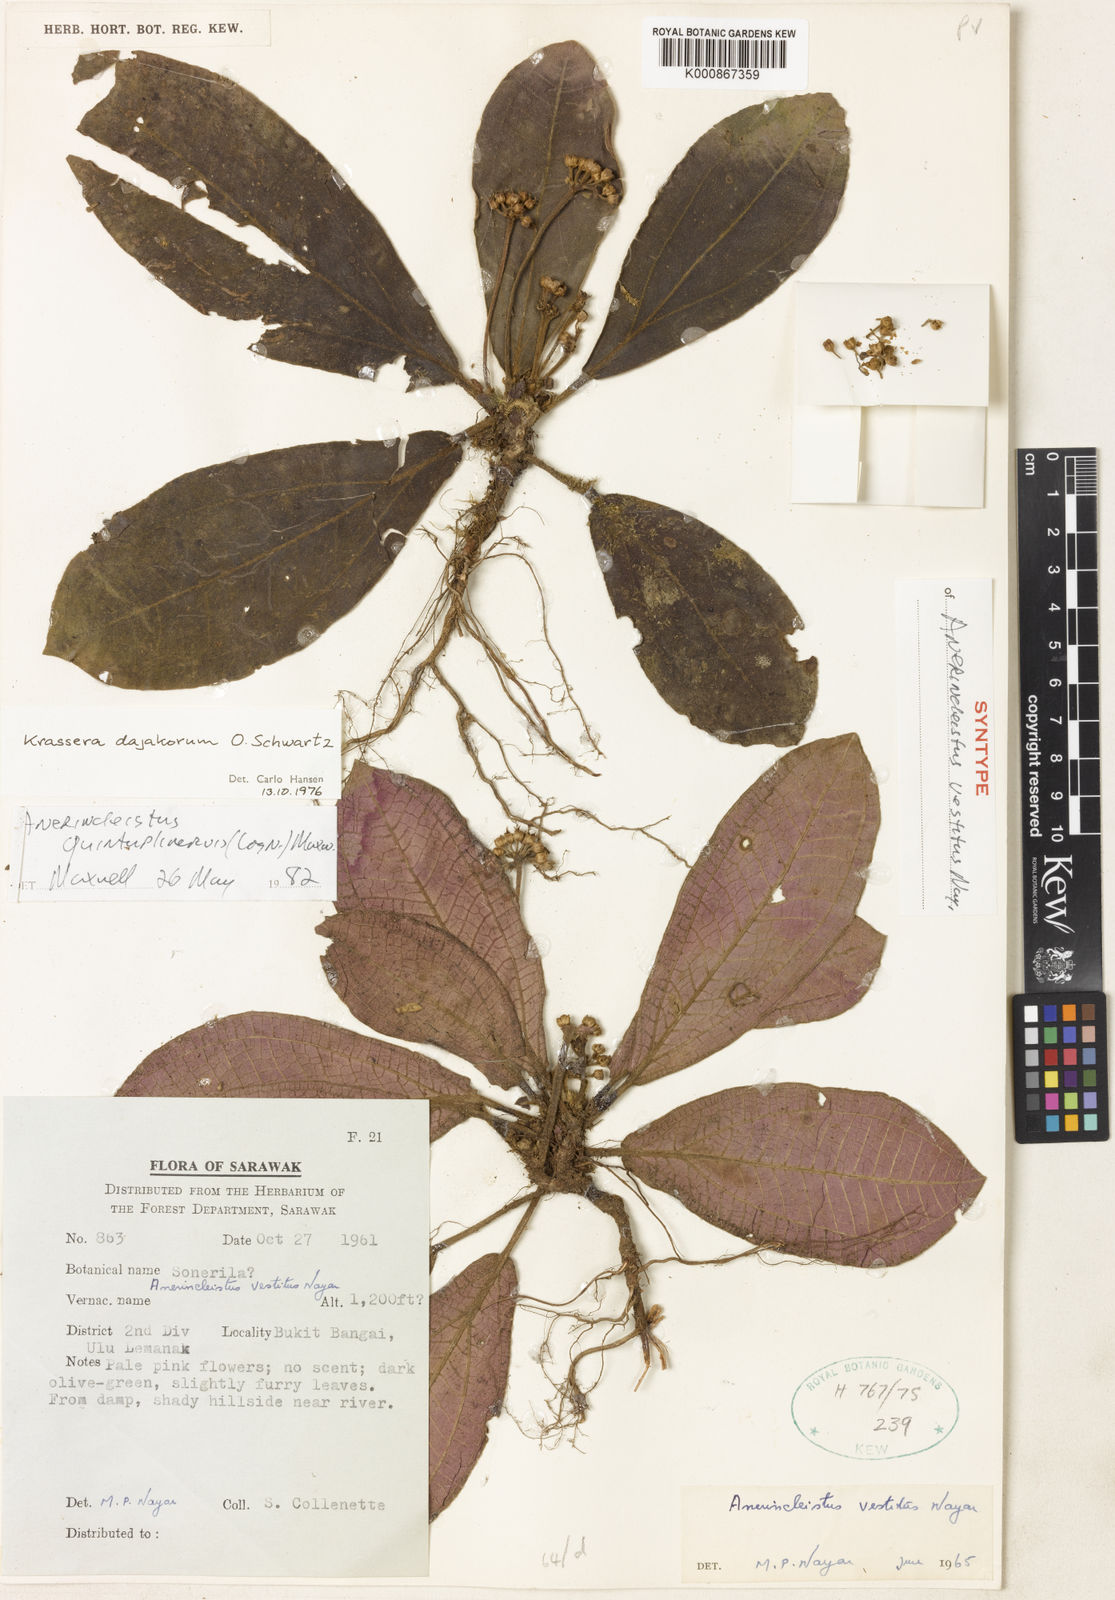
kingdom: Plantae
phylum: Tracheophyta
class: Magnoliopsida
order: Myrtales
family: Melastomataceae
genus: Anerincleistus
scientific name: Anerincleistus quintuplinervius
